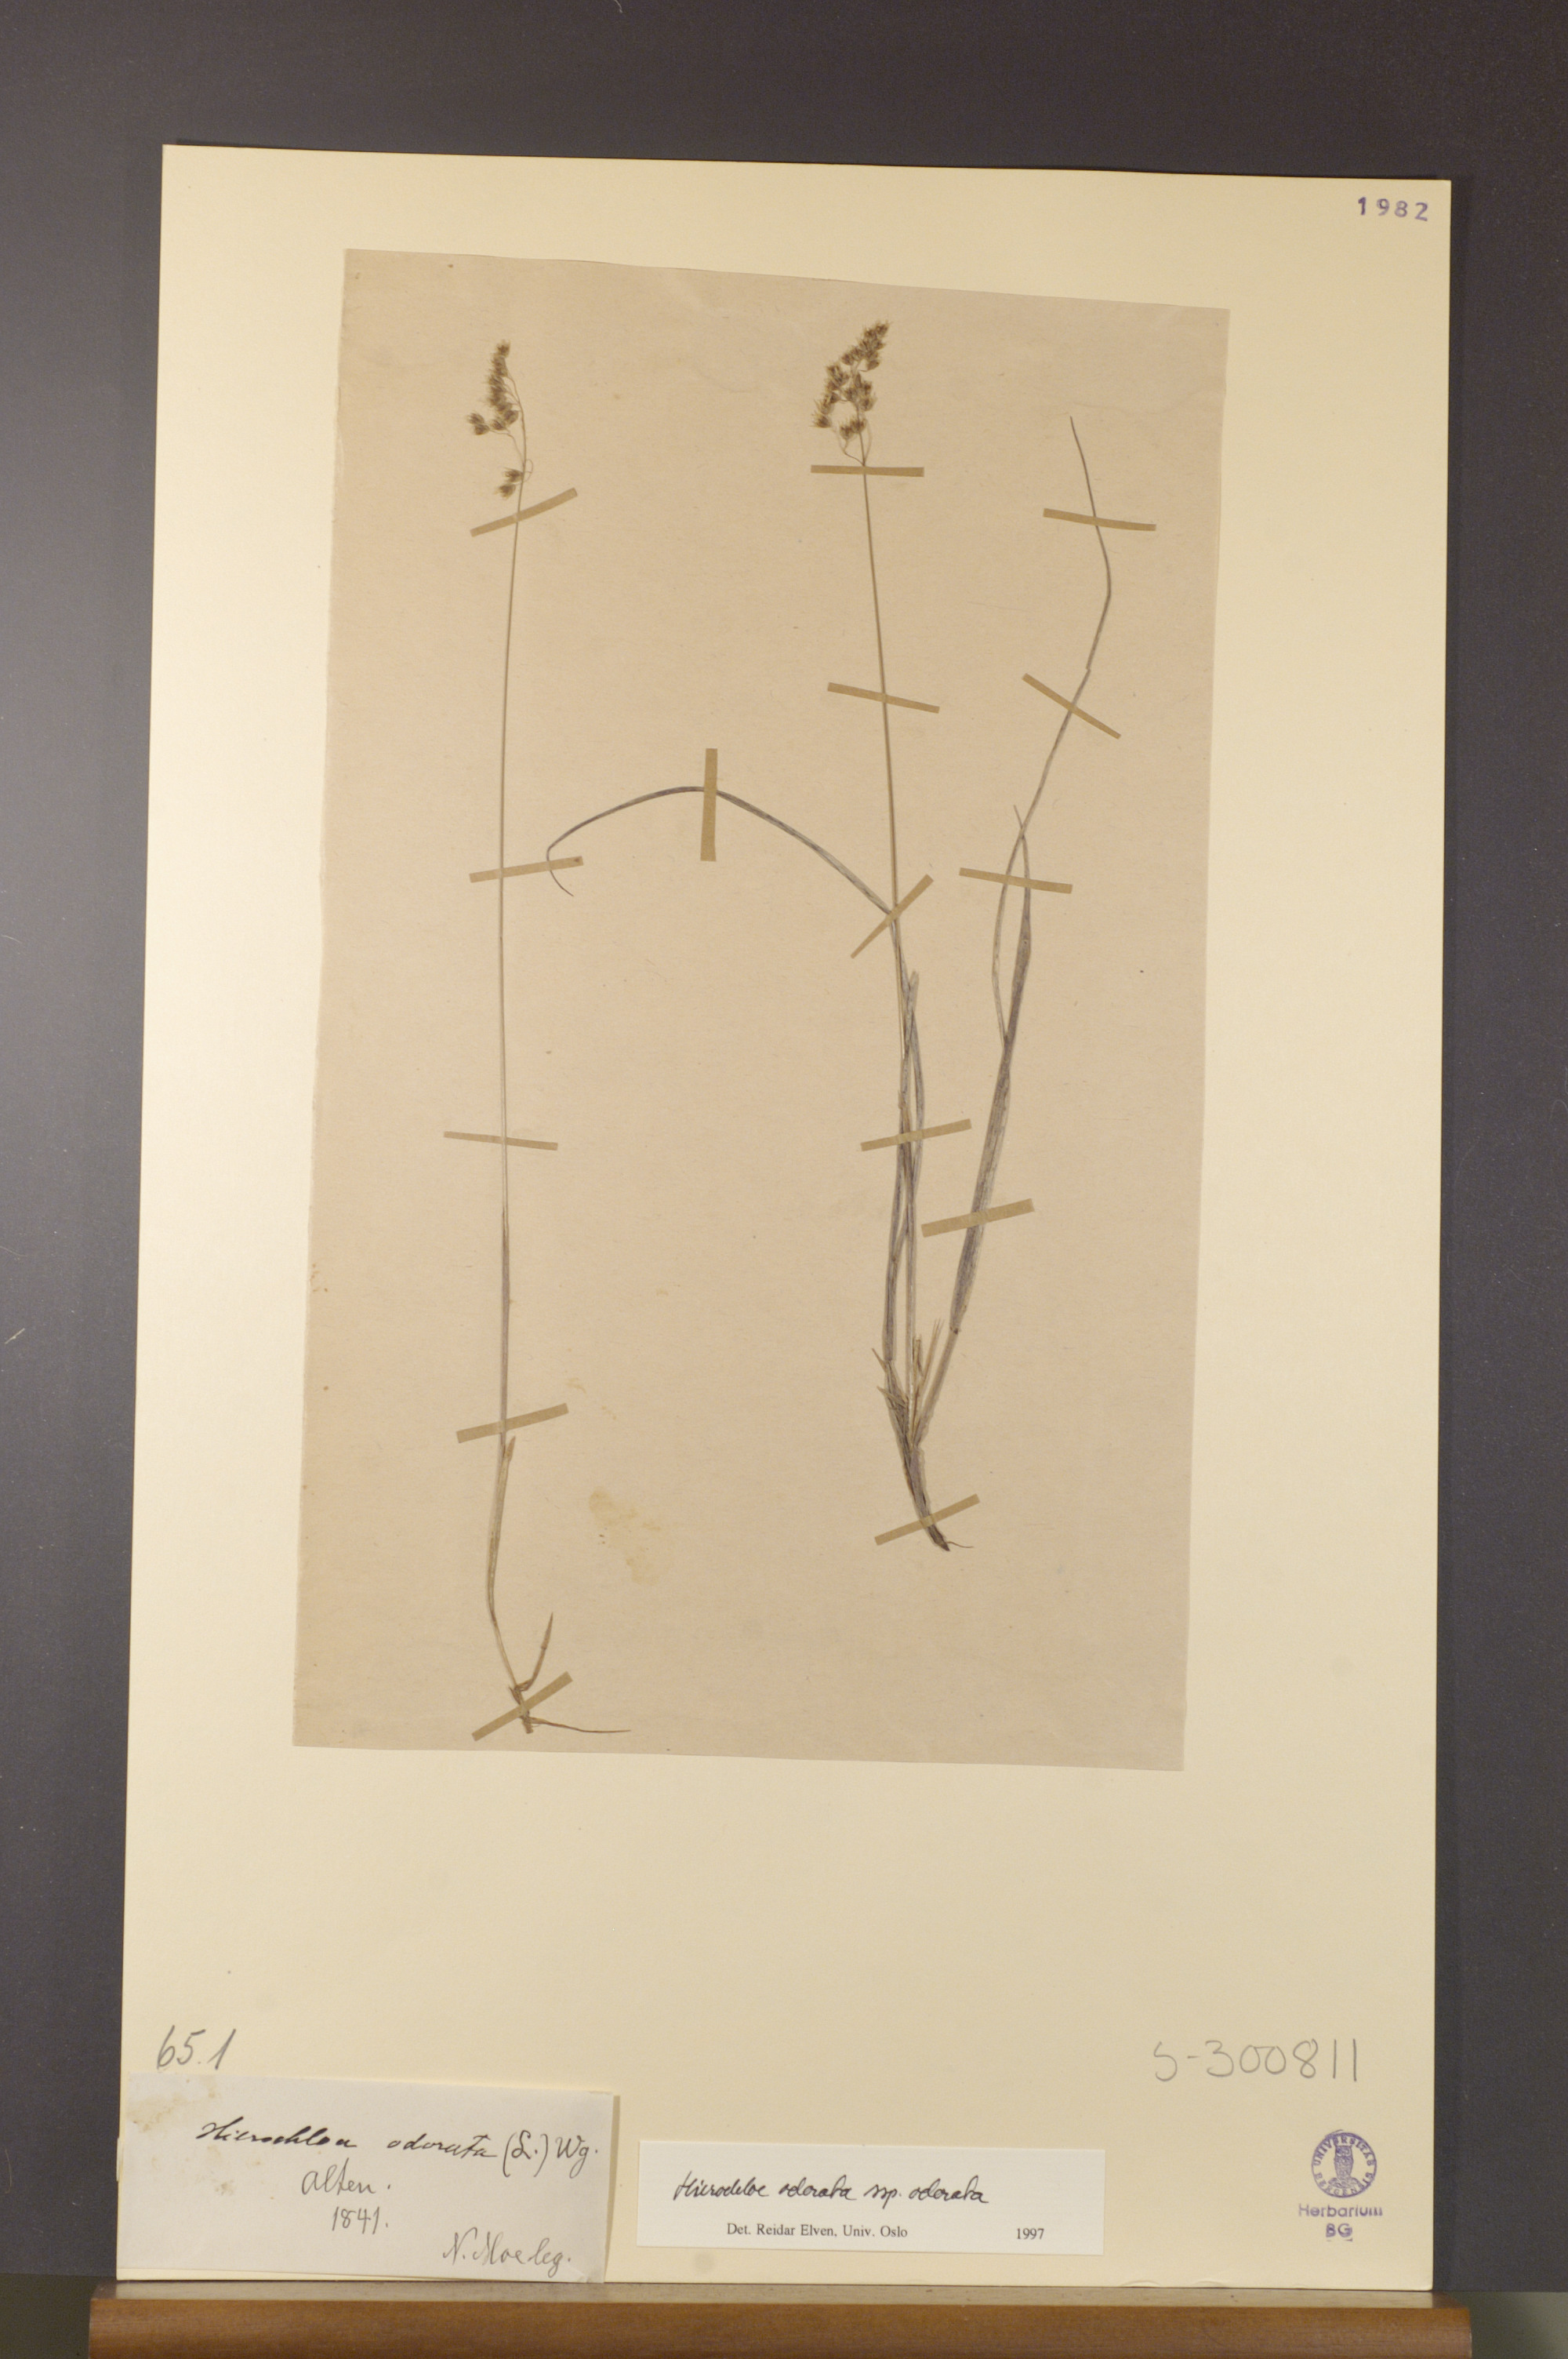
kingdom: Plantae
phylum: Tracheophyta
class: Liliopsida
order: Poales
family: Poaceae
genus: Anthoxanthum
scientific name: Anthoxanthum nitens
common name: Holy grass
